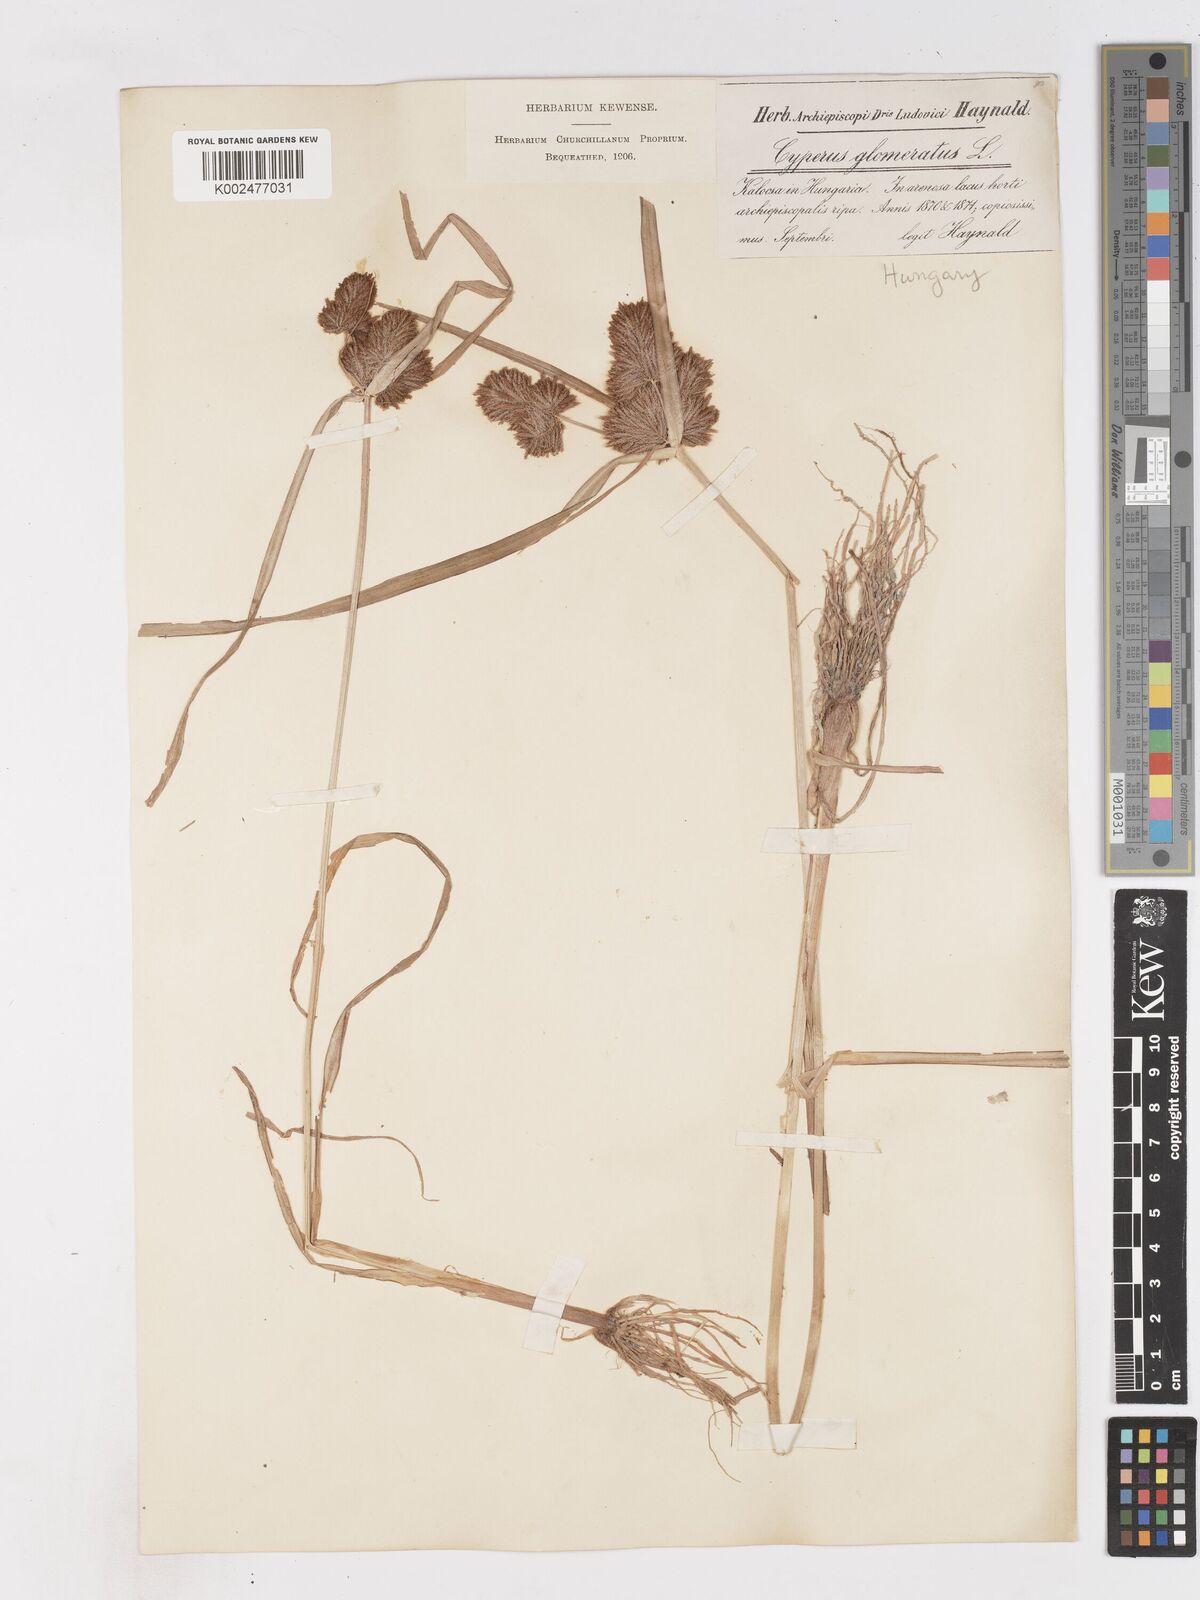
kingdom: Plantae
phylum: Tracheophyta
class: Liliopsida
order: Poales
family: Cyperaceae
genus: Cyperus
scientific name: Cyperus glomeratus
